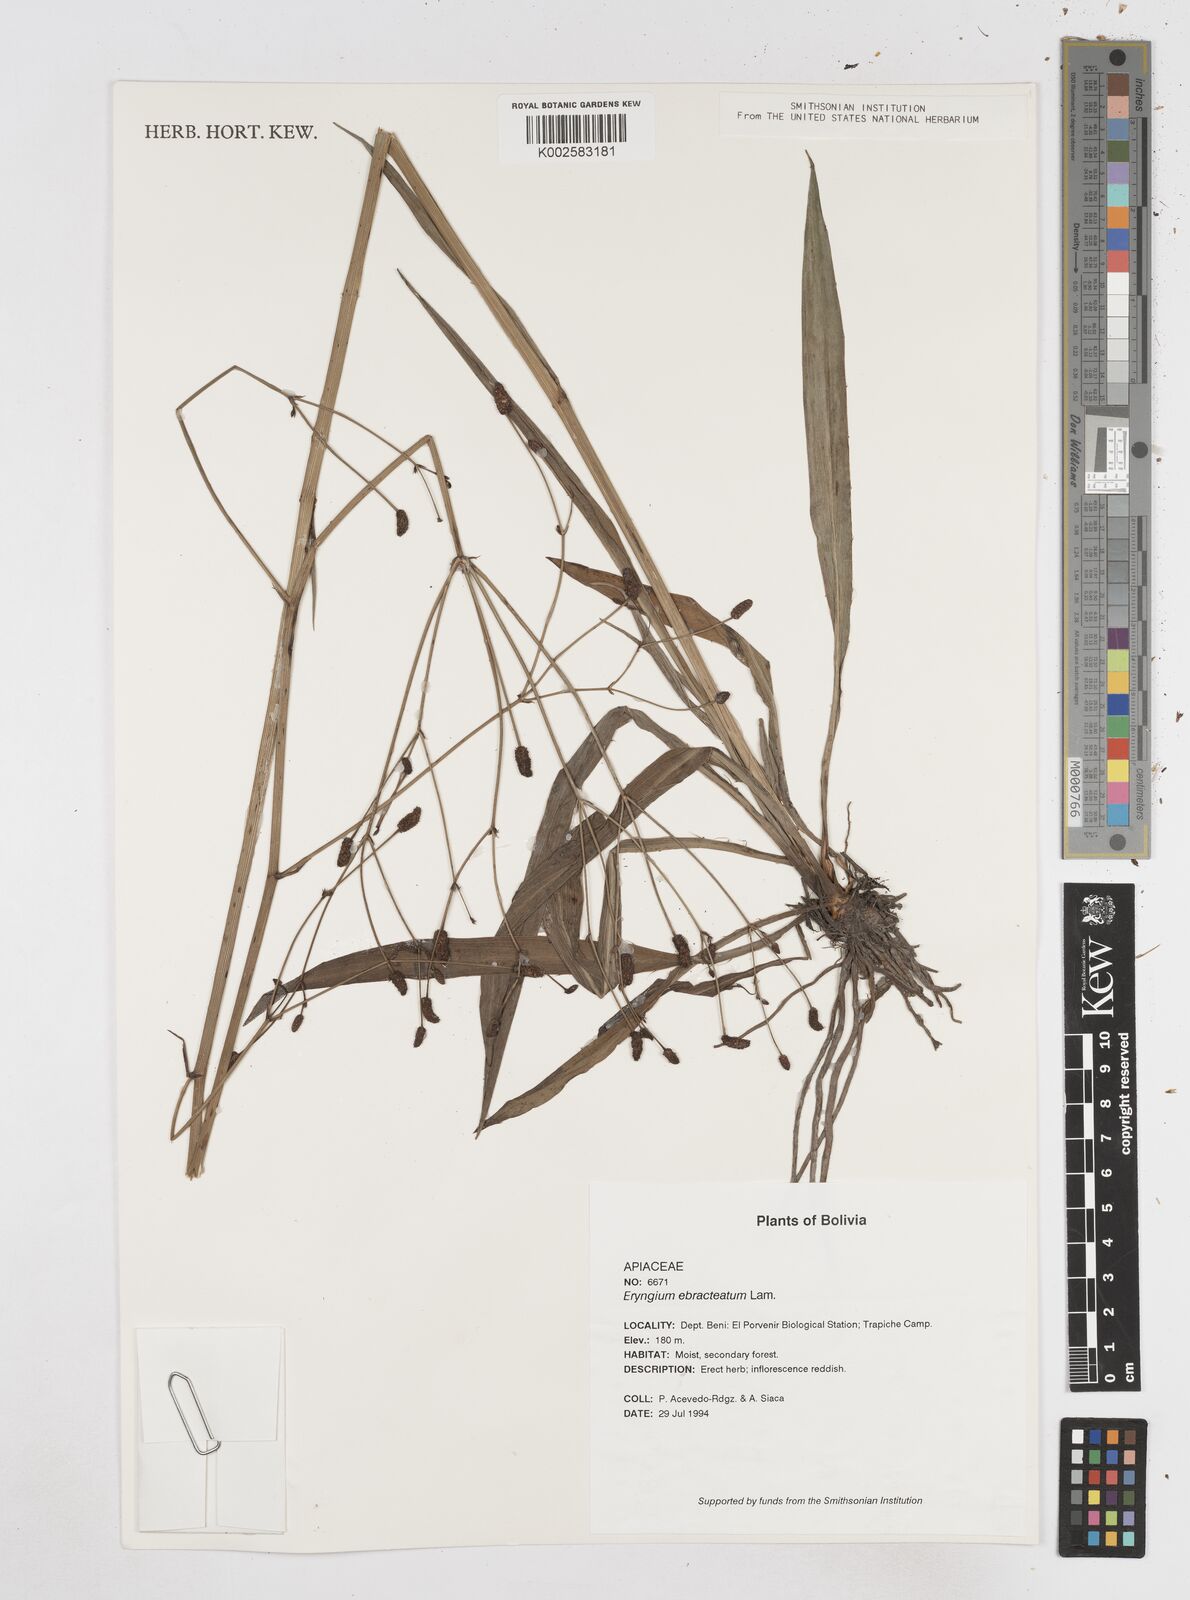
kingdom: Plantae
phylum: Tracheophyta
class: Magnoliopsida
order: Apiales
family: Apiaceae
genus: Eryngium
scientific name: Eryngium ebracteatum
